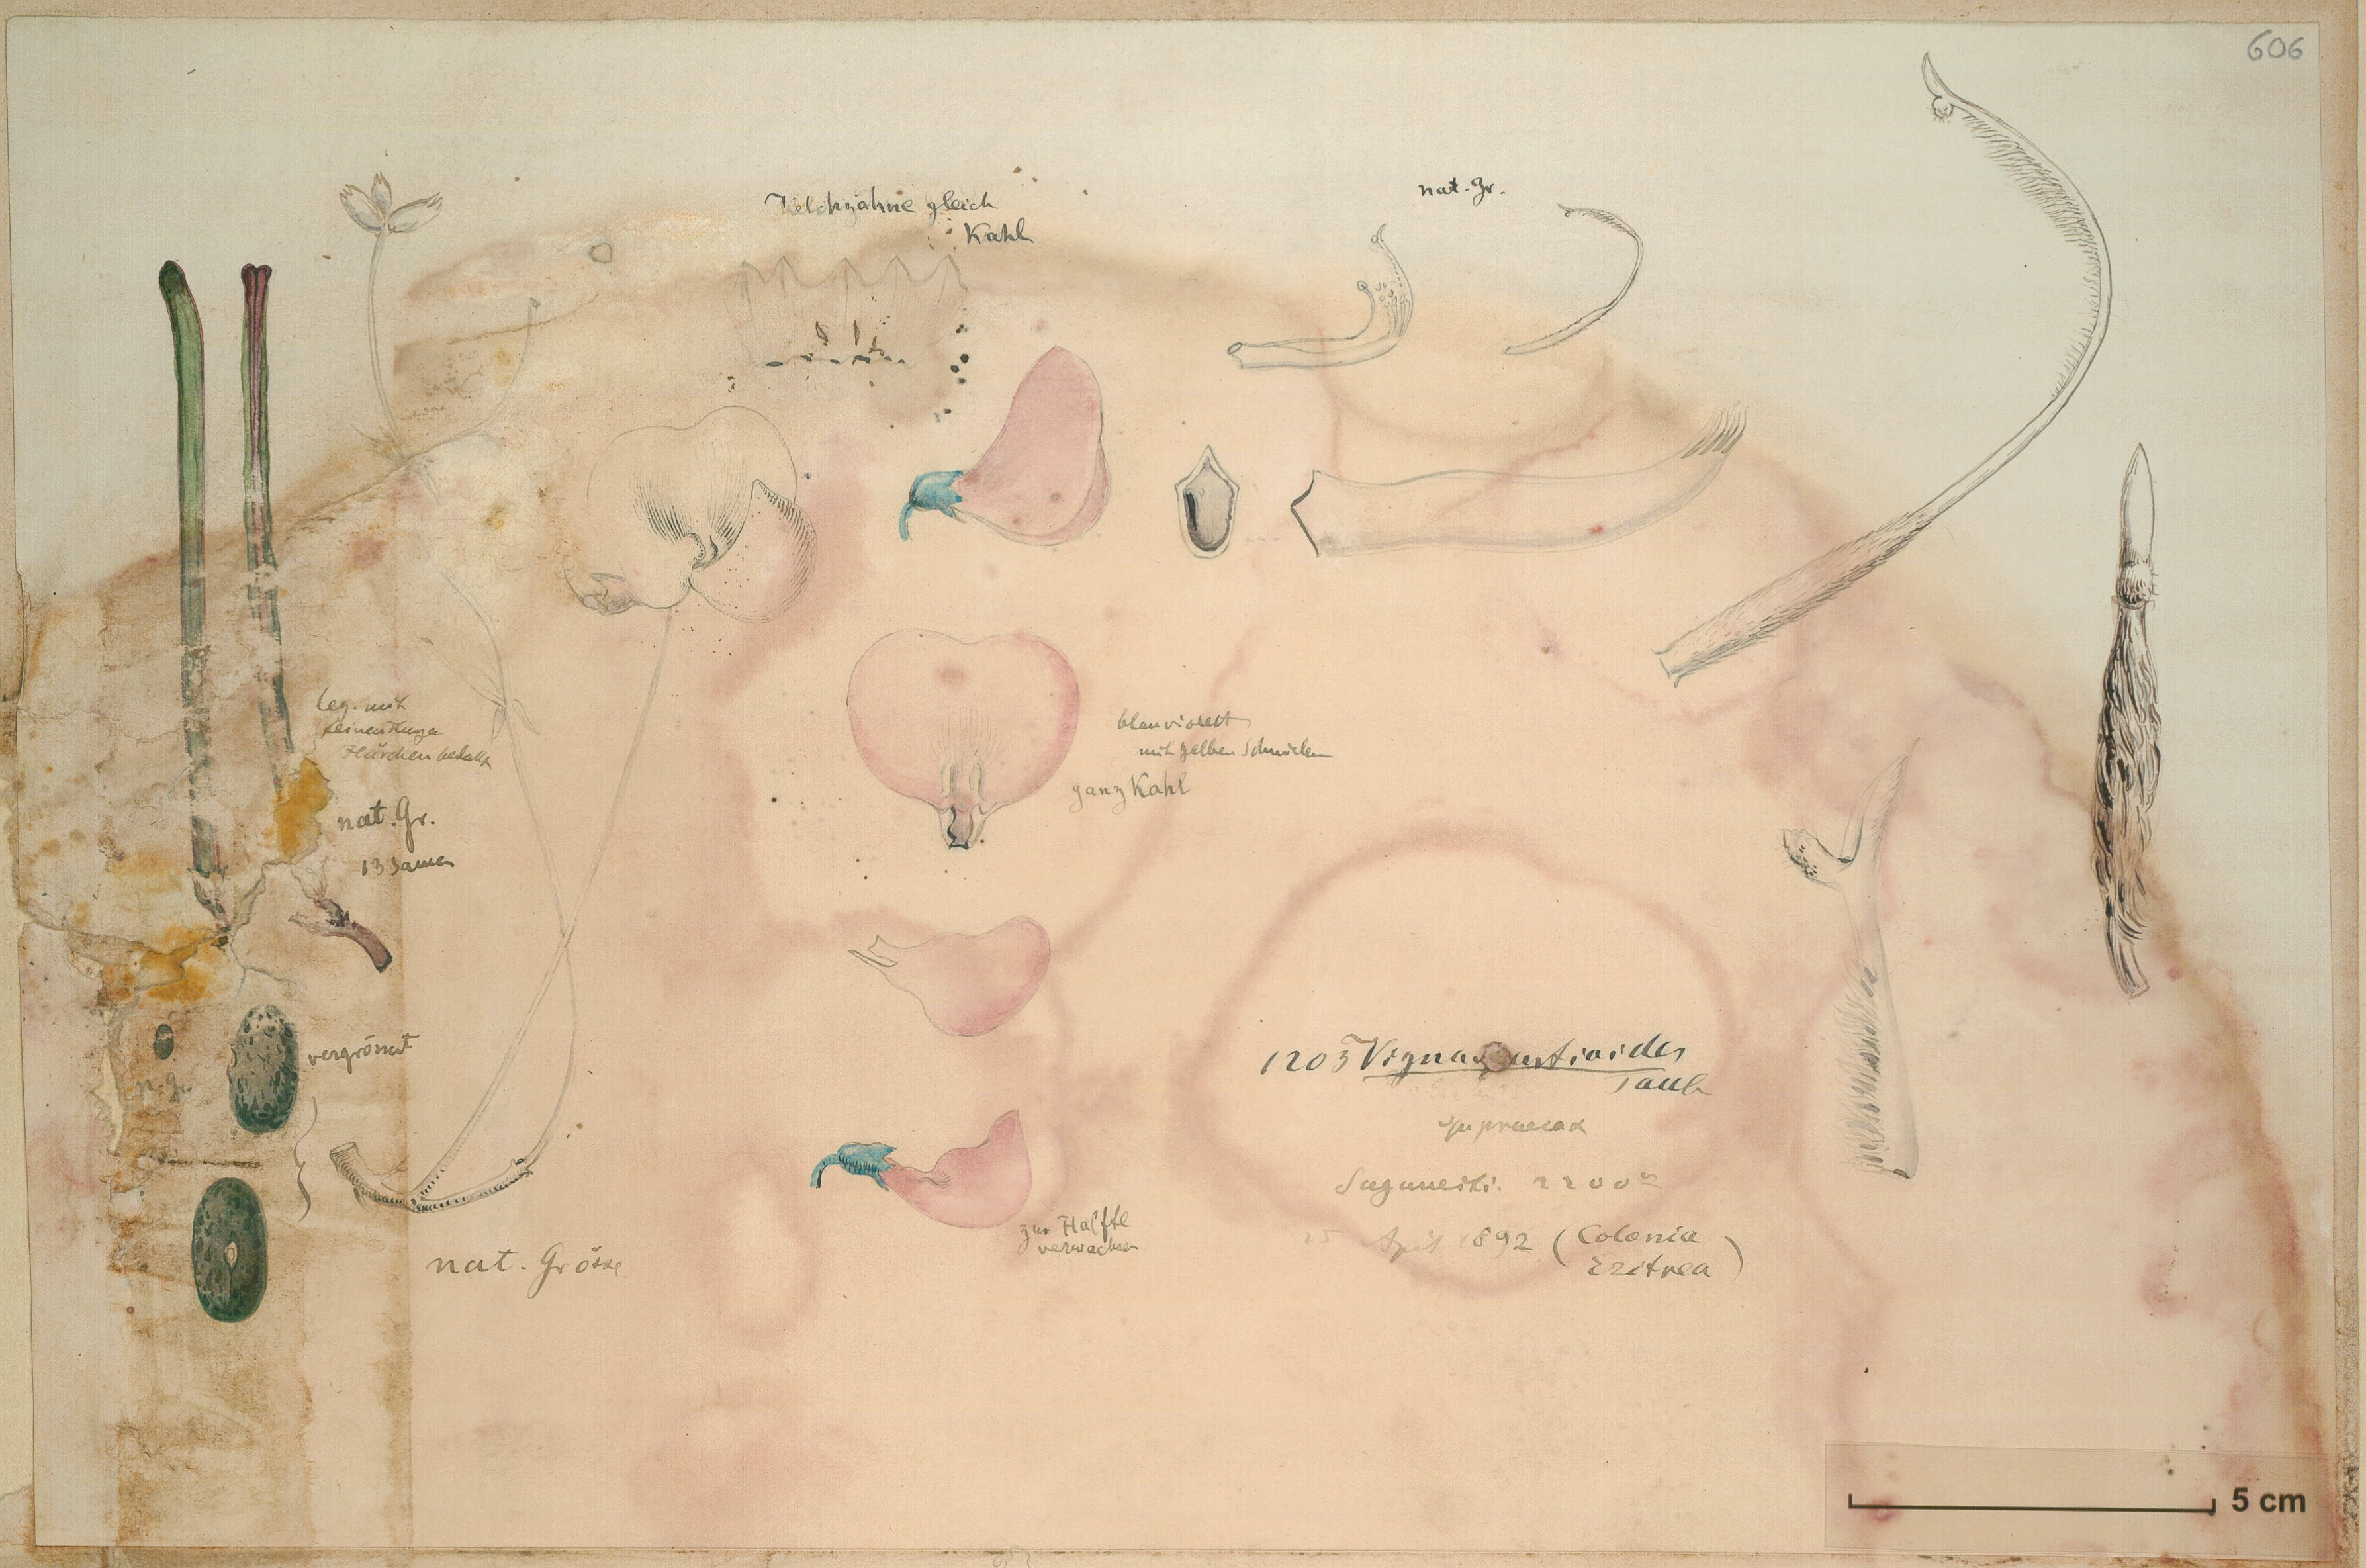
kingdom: Plantae
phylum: Tracheophyta
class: Magnoliopsida
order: Fabales
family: Fabaceae
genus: Vigna
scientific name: Vigna debanensis
